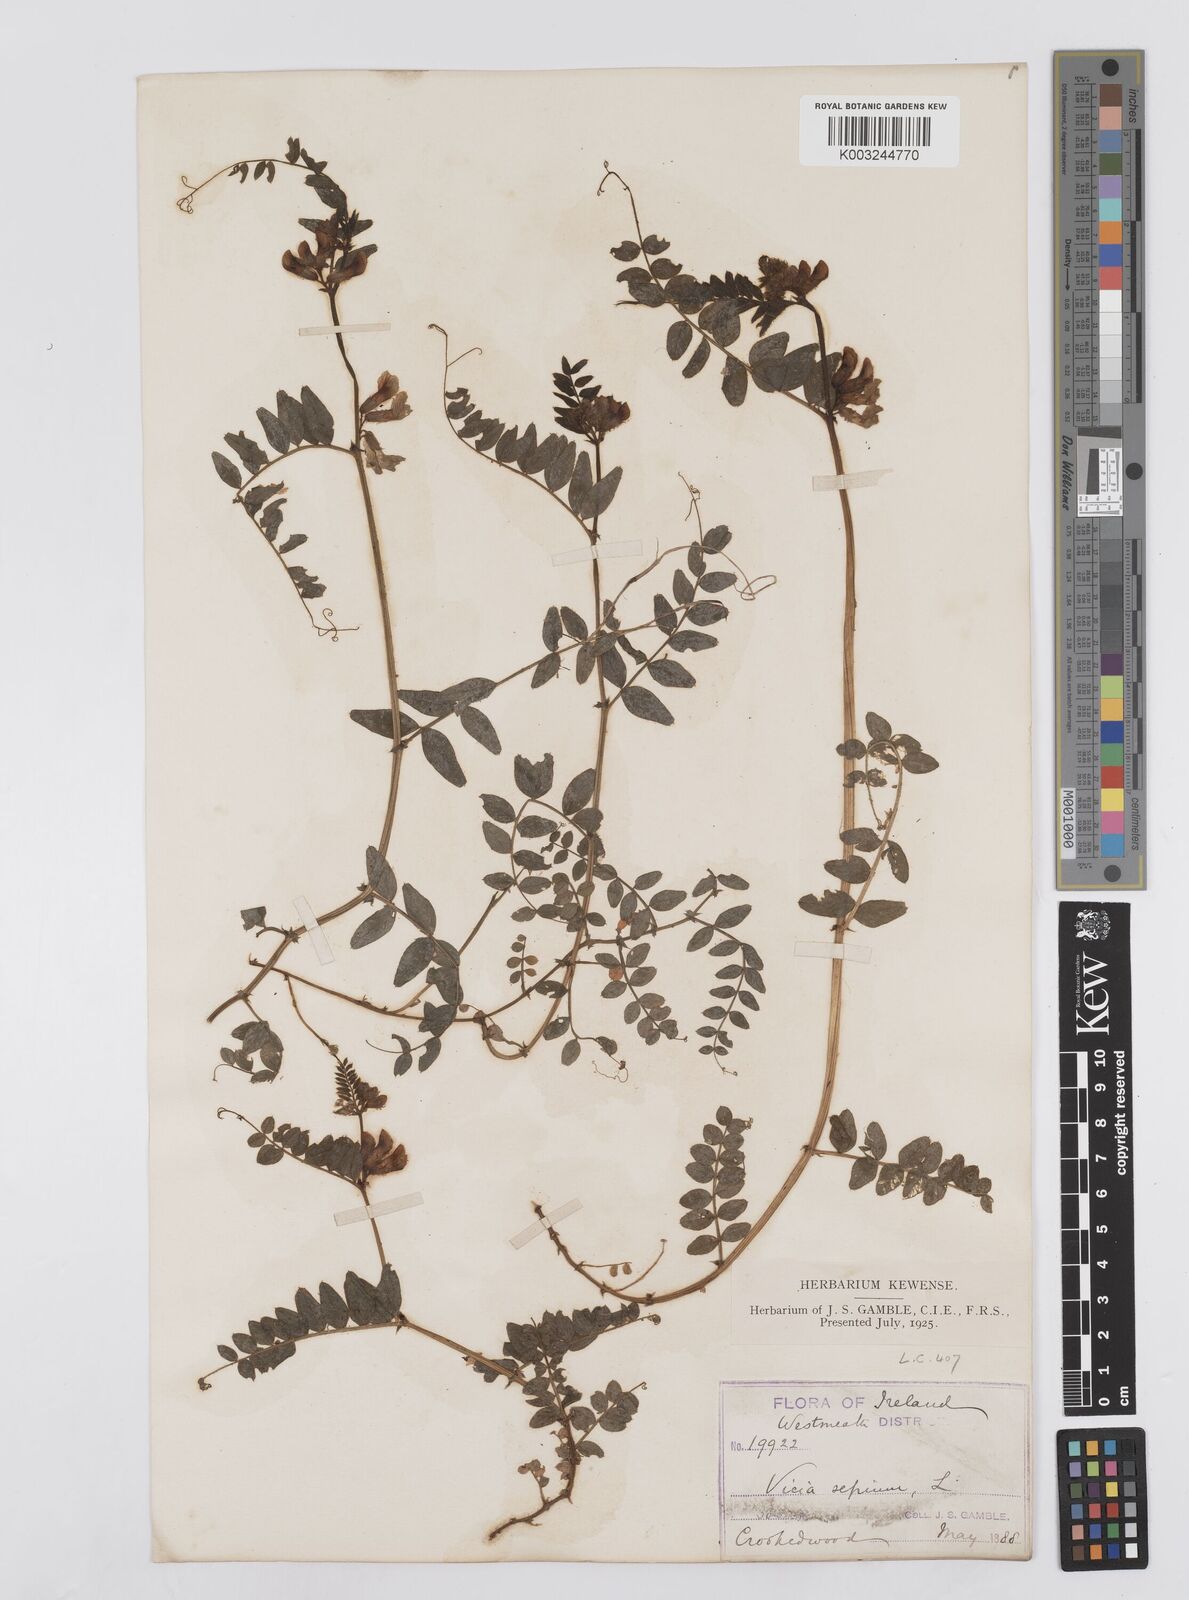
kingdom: Plantae
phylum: Tracheophyta
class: Magnoliopsida
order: Fabales
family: Fabaceae
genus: Vicia
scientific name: Vicia sepium
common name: Bush vetch
